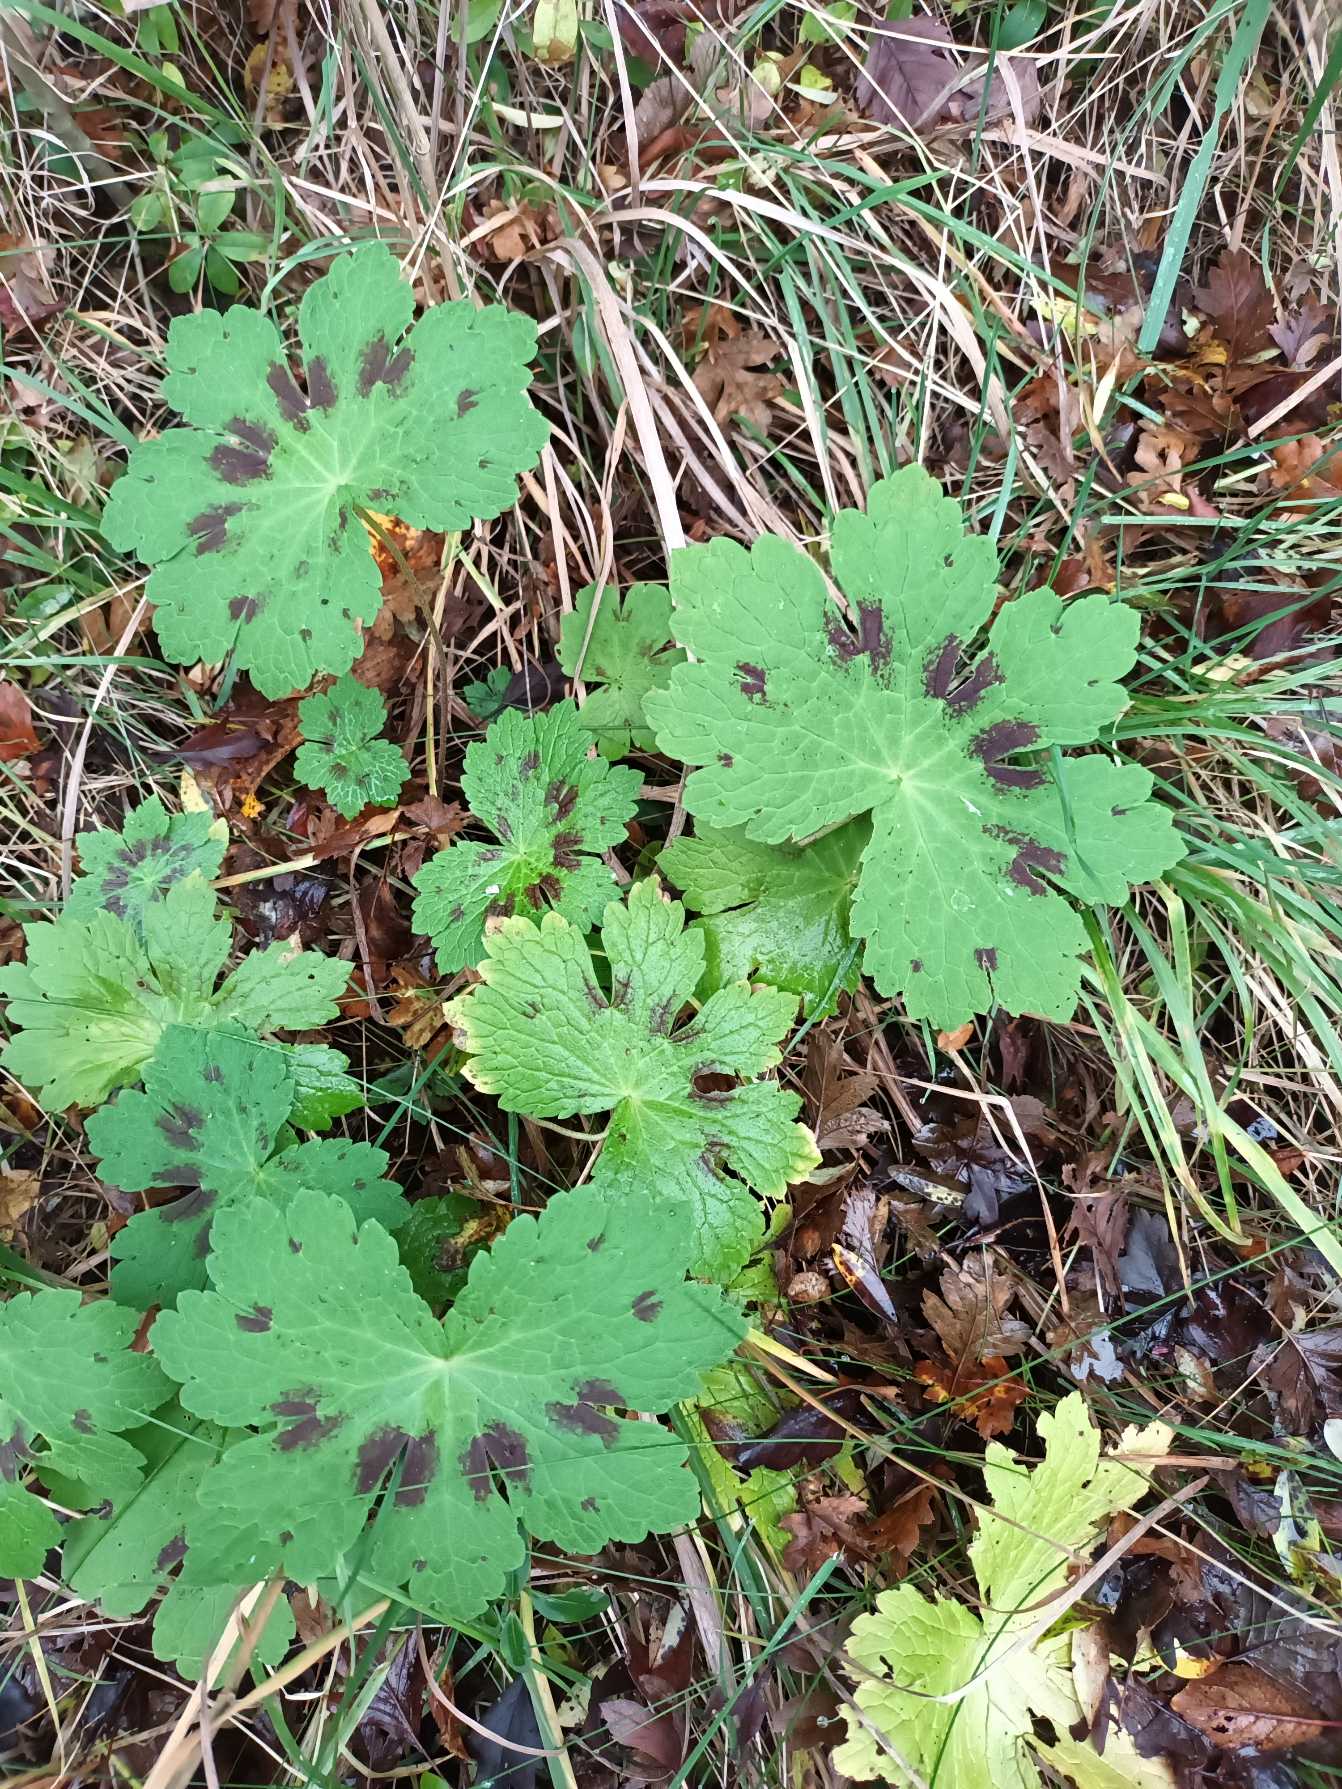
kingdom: Plantae
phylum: Tracheophyta
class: Magnoliopsida
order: Geraniales
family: Geraniaceae
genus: Geranium
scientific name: Geranium phaeum
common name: Bølgekronet storkenæb
